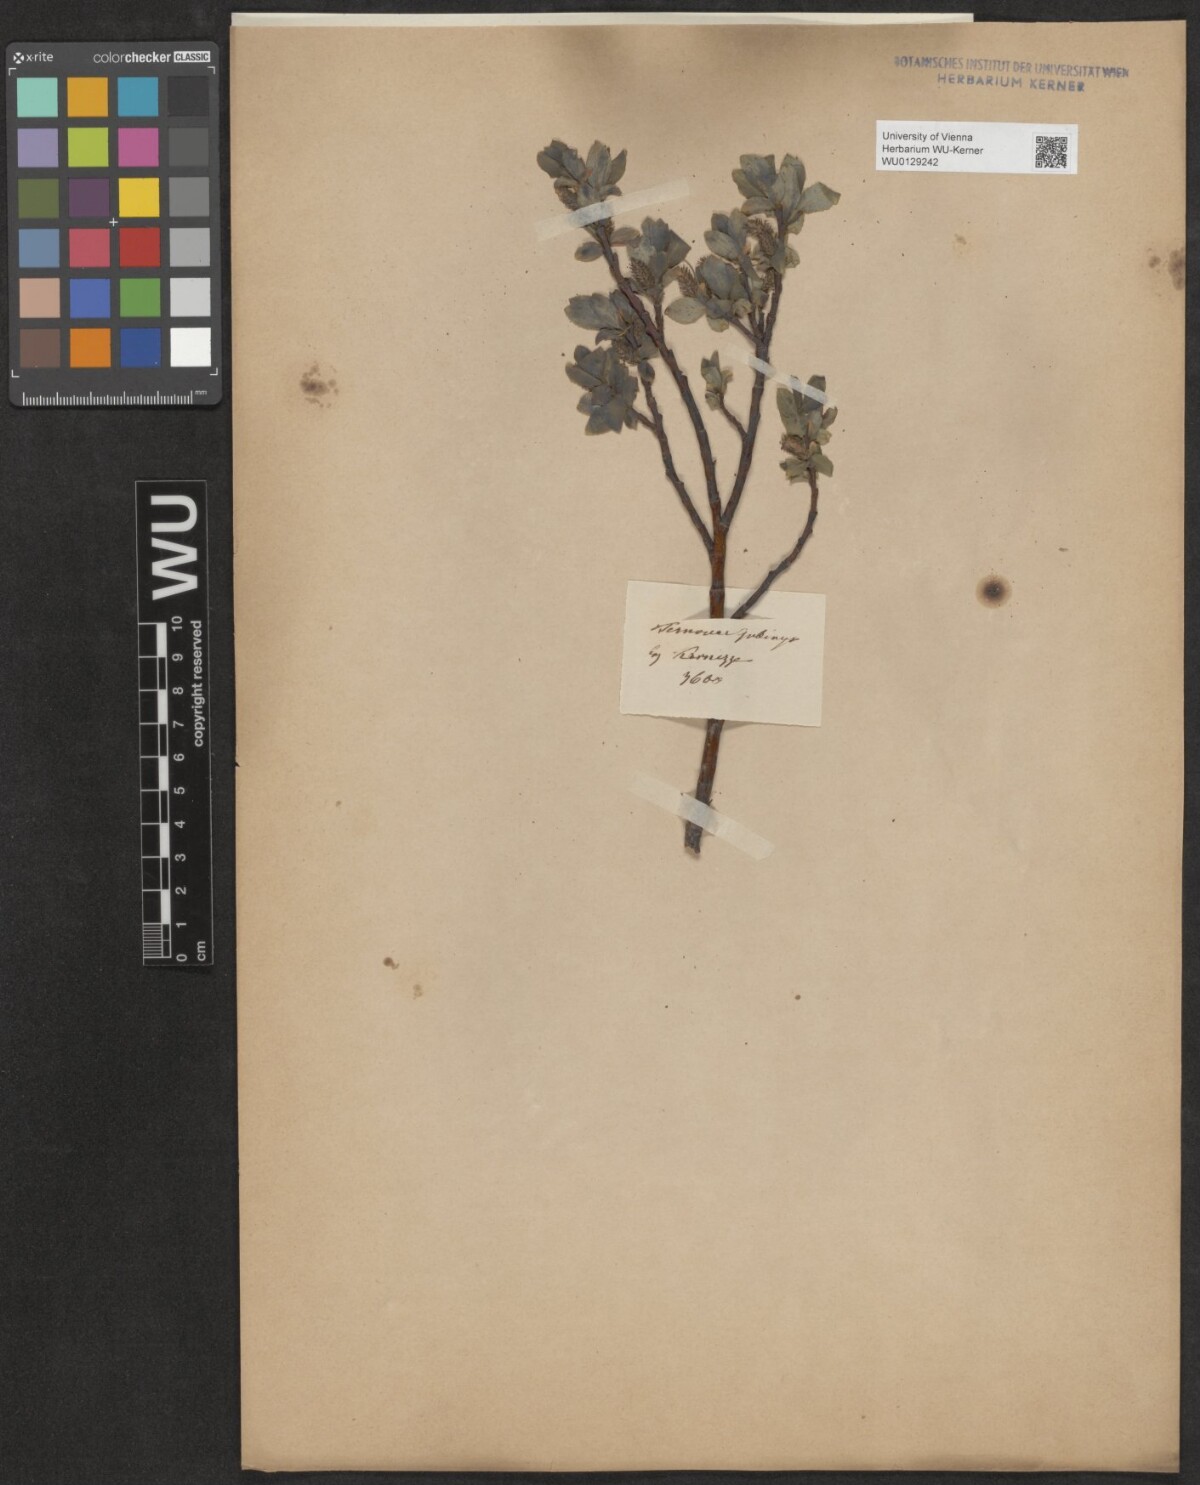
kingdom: Plantae
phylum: Tracheophyta
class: Magnoliopsida
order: Malpighiales
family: Salicaceae
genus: Salix
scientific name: Salix glabra
